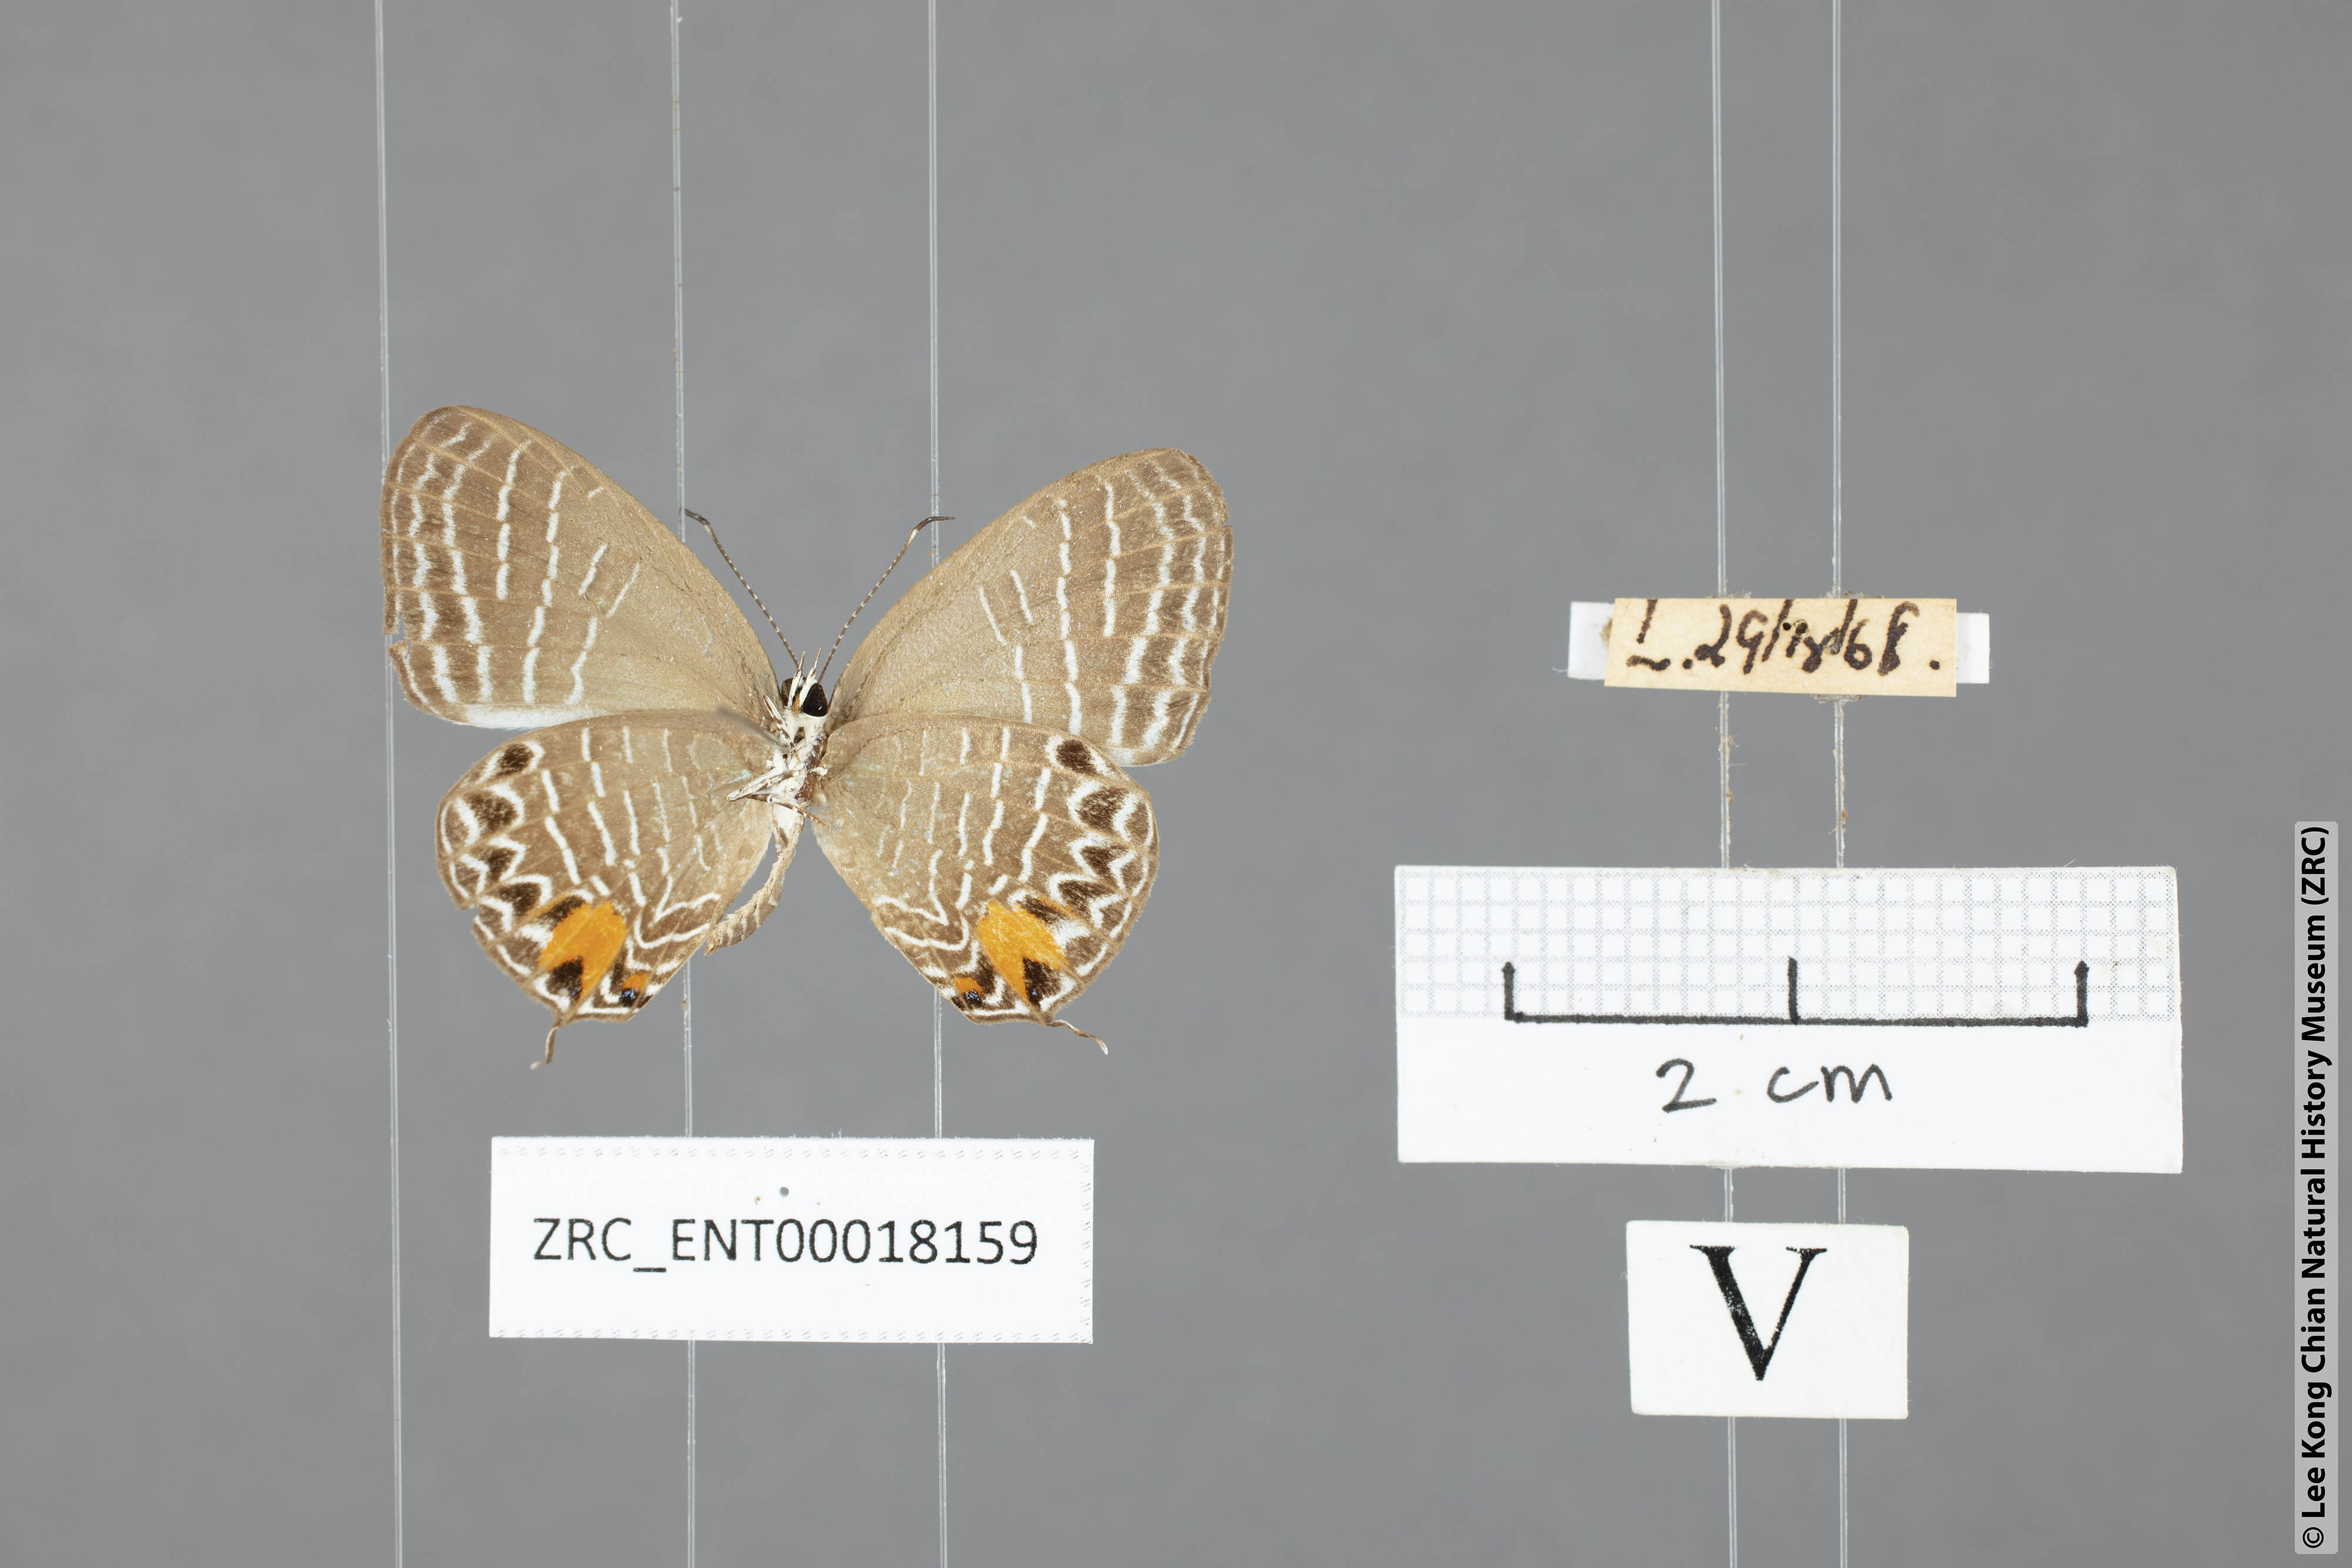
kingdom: Animalia
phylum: Arthropoda
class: Insecta
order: Lepidoptera
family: Lycaenidae
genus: Jamides
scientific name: Jamides
